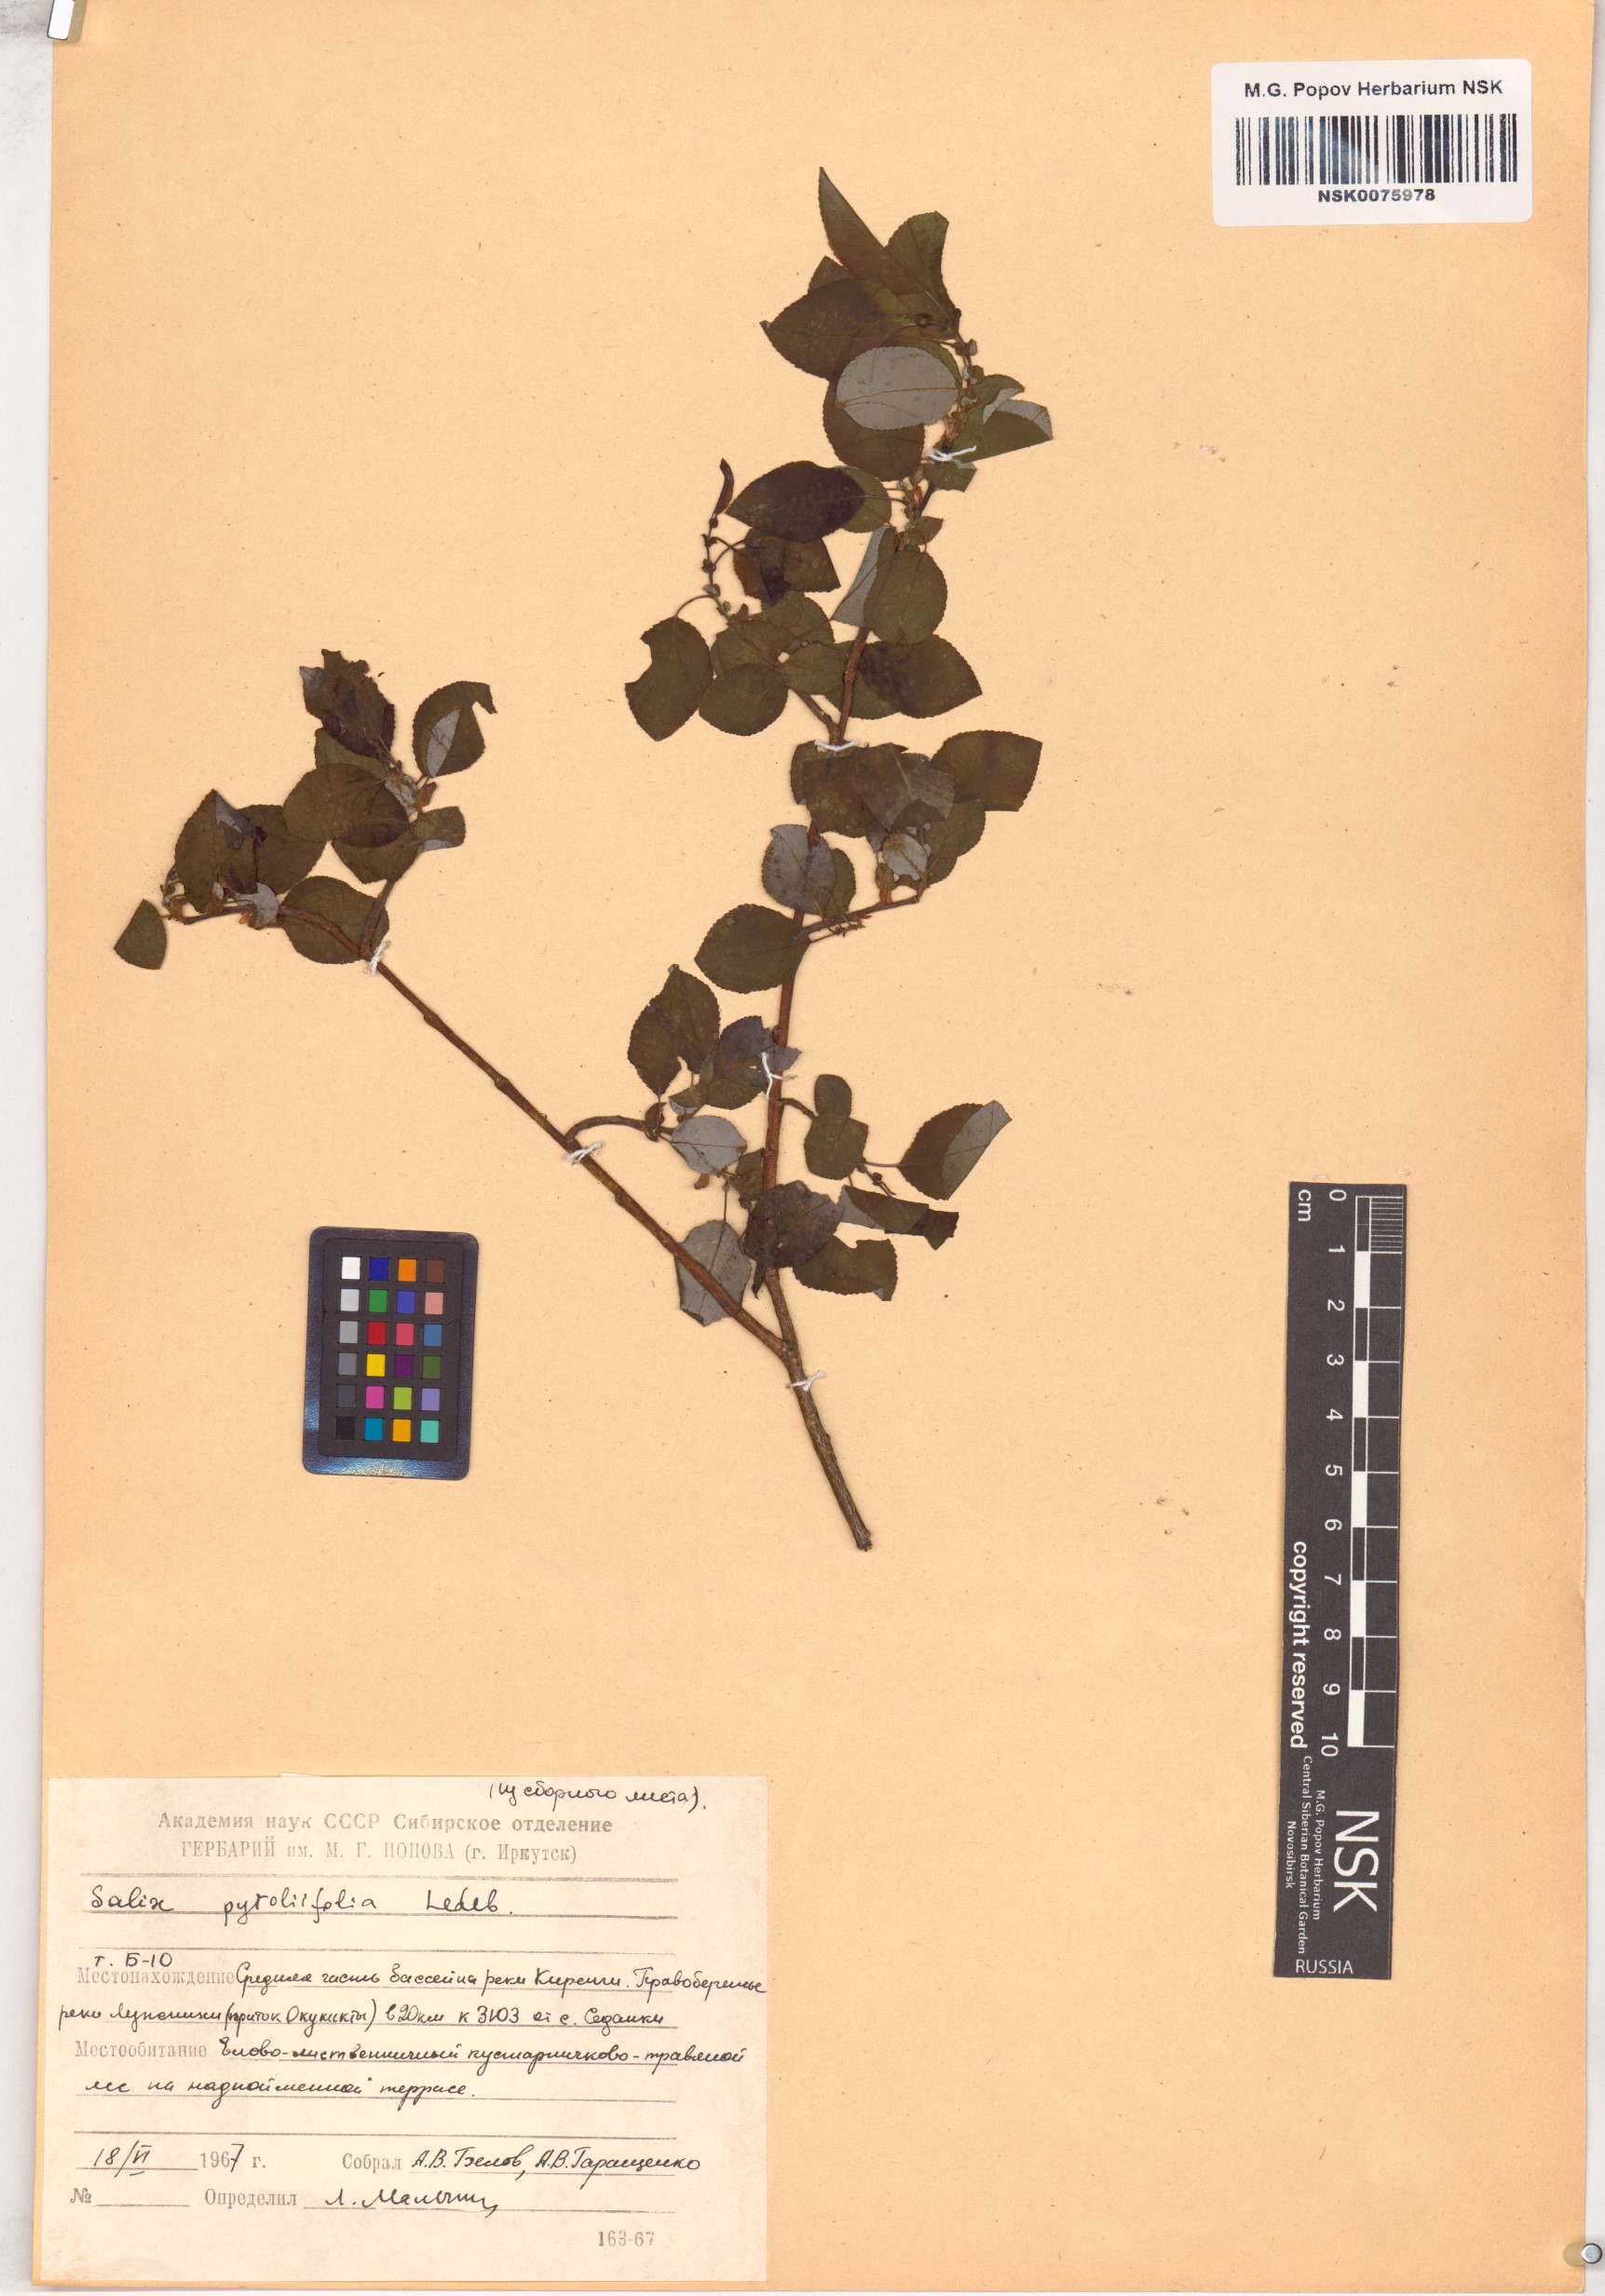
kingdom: Plantae
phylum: Tracheophyta
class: Magnoliopsida
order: Malpighiales
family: Salicaceae
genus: Salix
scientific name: Salix pyrolifolia
